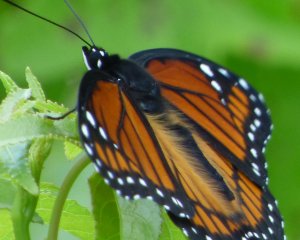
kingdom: Animalia
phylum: Arthropoda
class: Insecta
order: Lepidoptera
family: Nymphalidae
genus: Limenitis
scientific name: Limenitis archippus
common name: Viceroy
